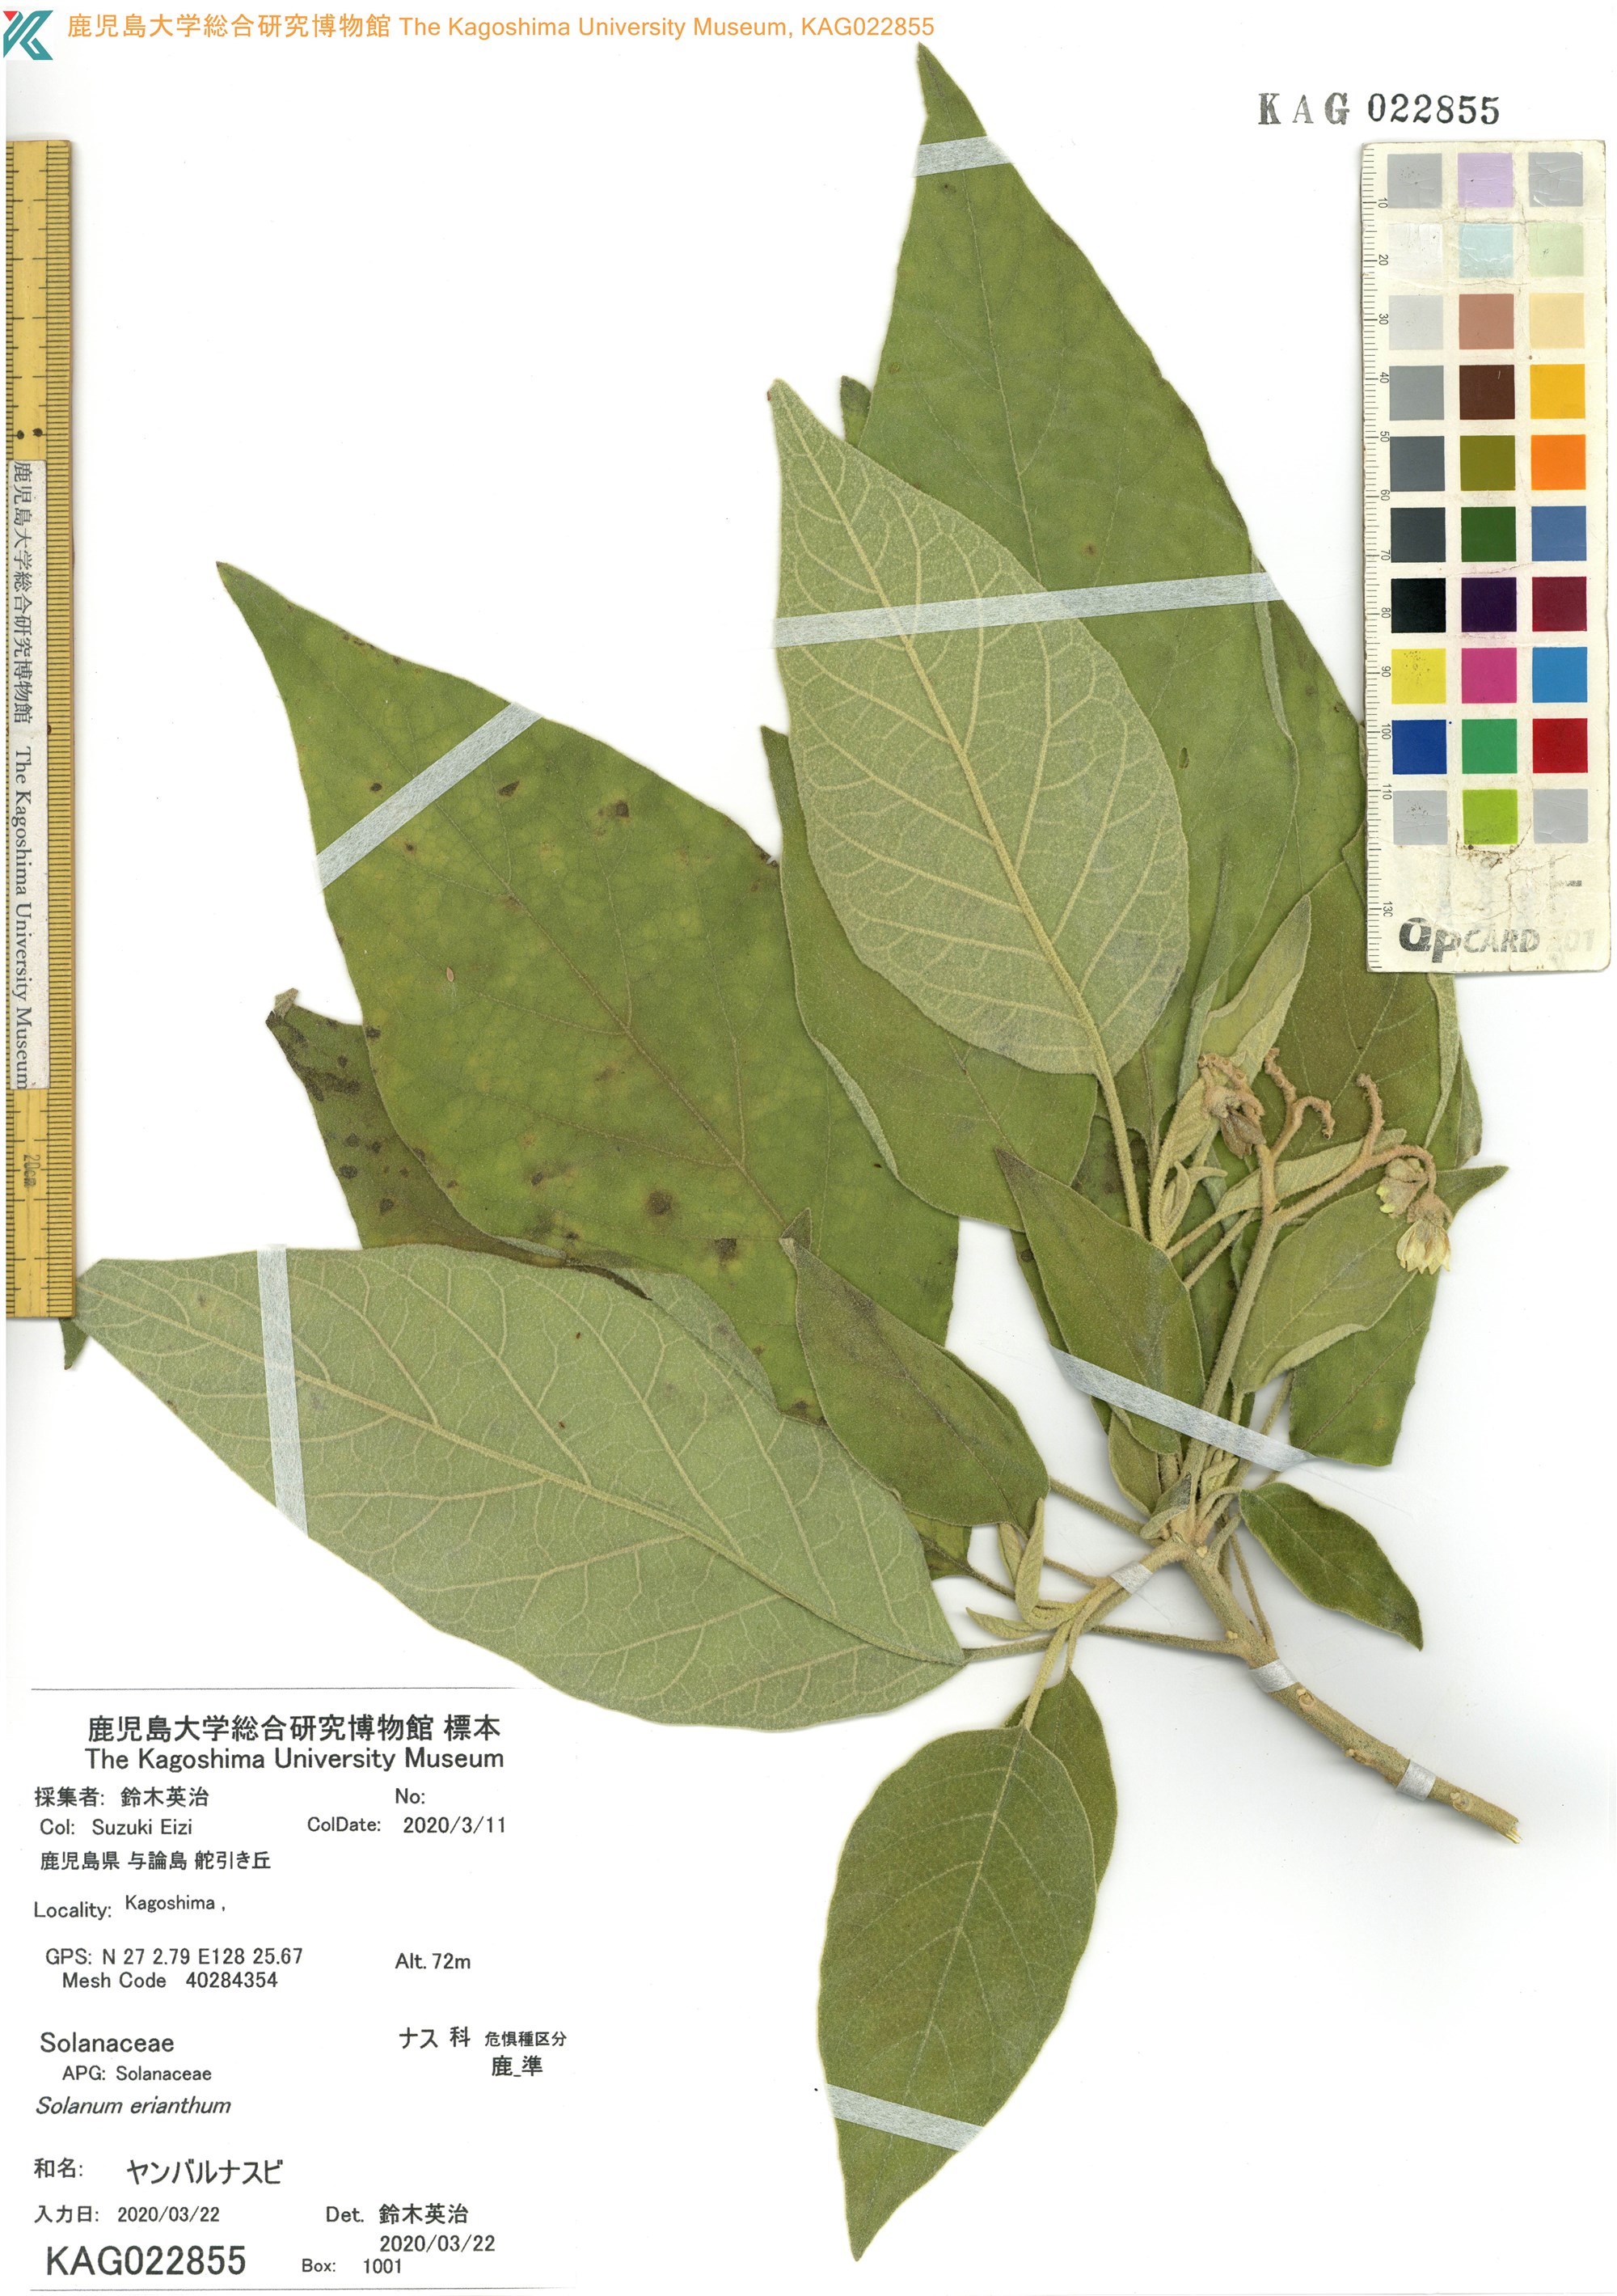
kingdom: Plantae
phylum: Tracheophyta
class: Magnoliopsida
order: Solanales
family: Solanaceae
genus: Solanum
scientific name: Solanum erianthum
